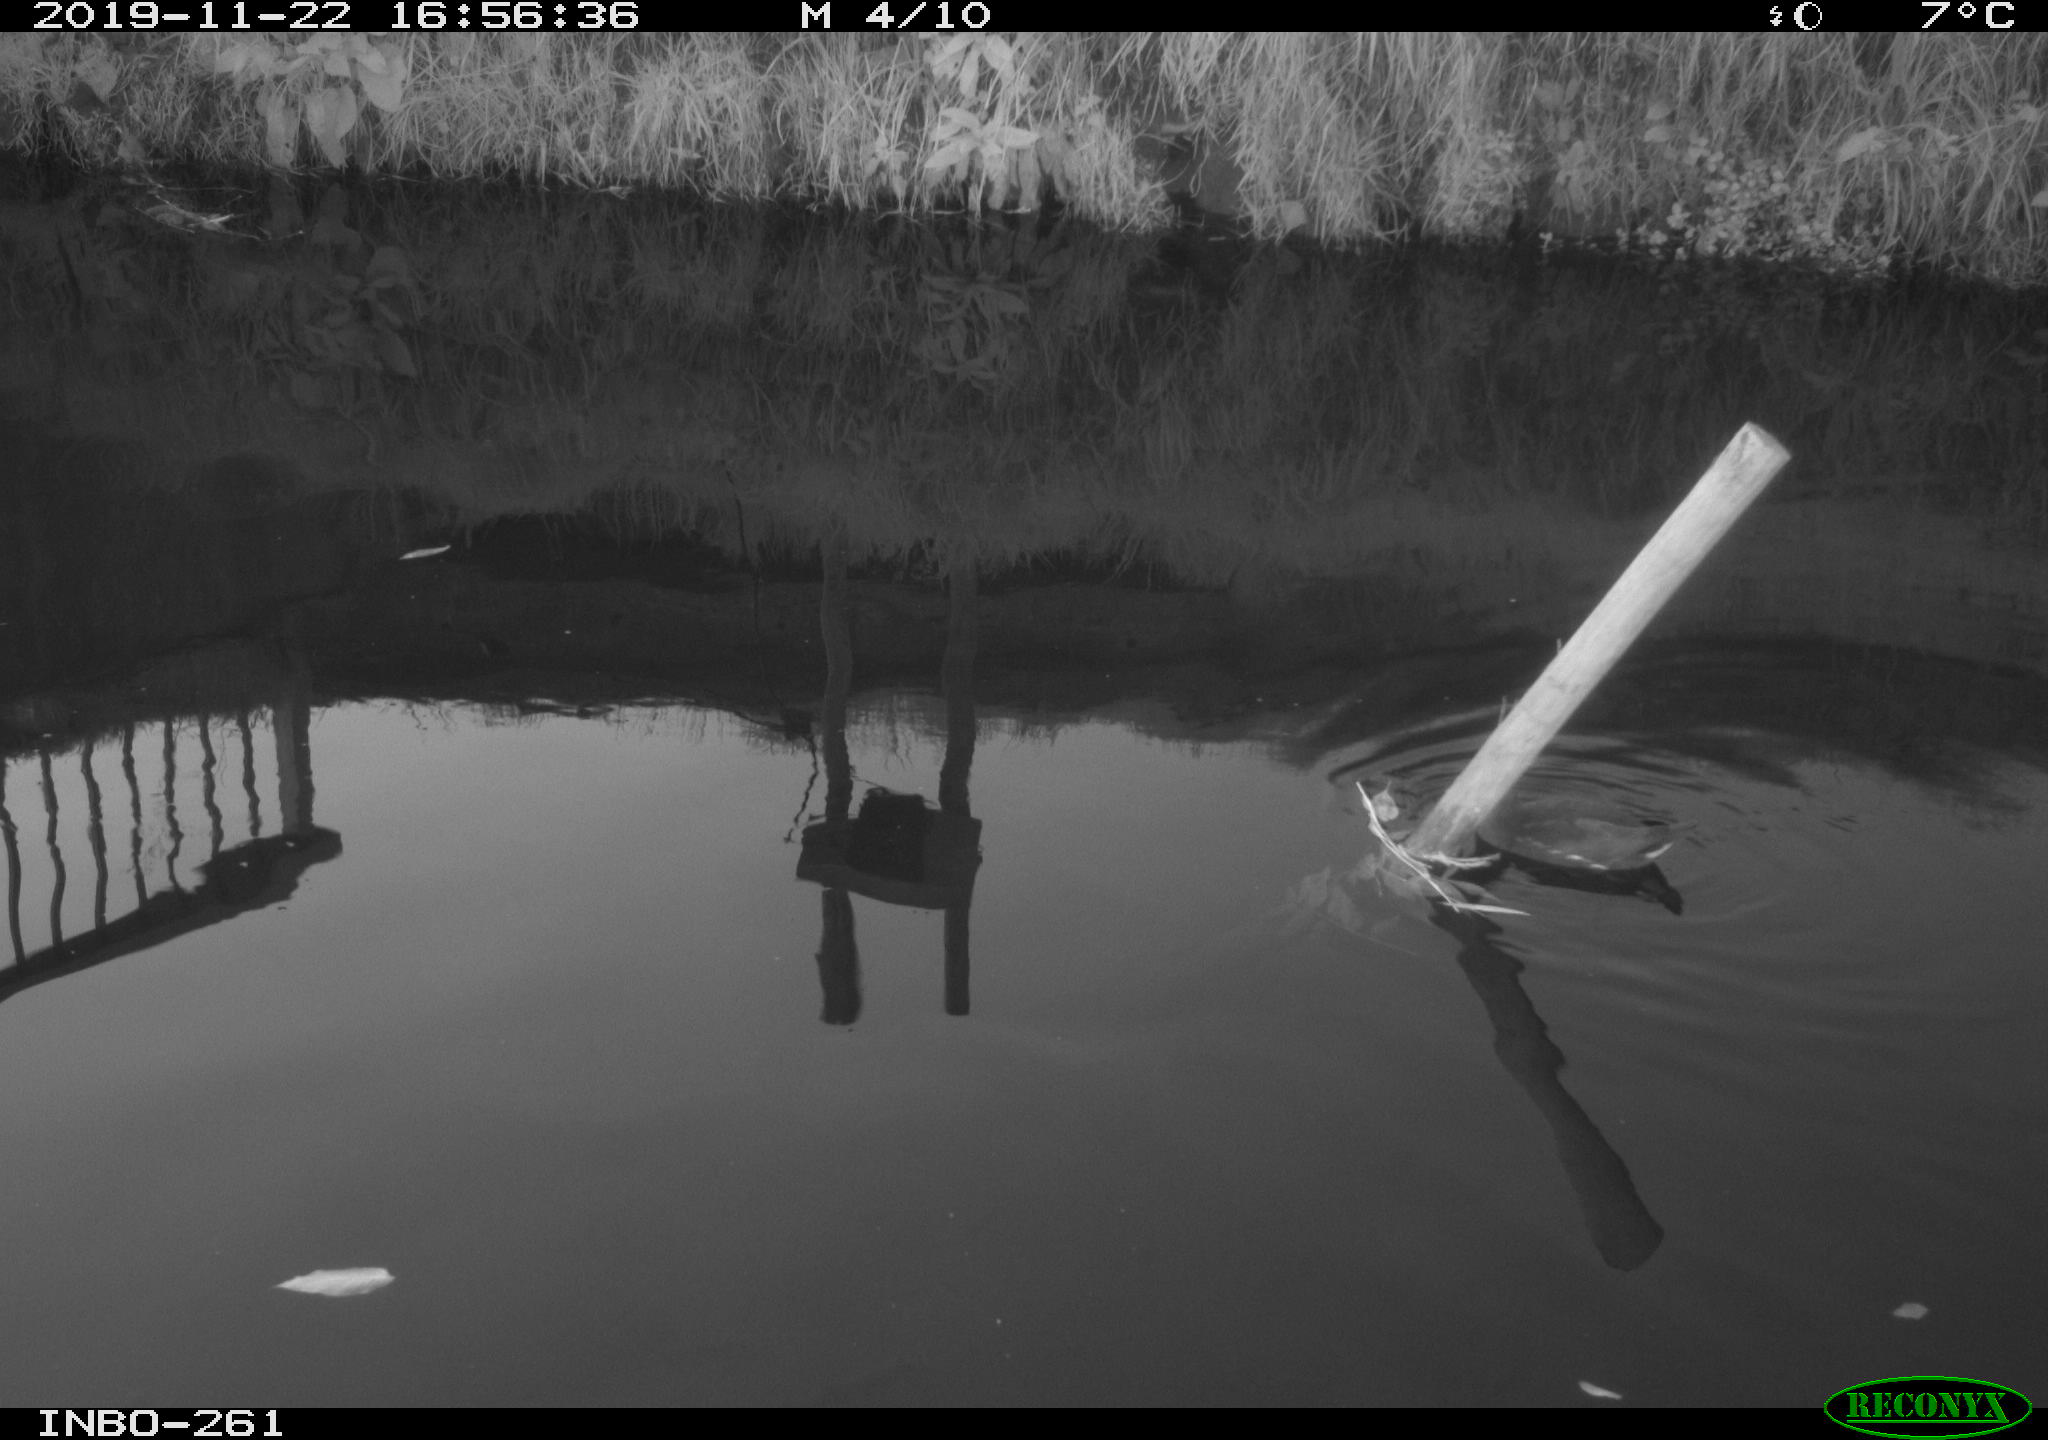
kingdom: Animalia
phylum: Chordata
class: Aves
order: Gruiformes
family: Rallidae
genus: Gallinula
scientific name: Gallinula chloropus
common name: Common moorhen
